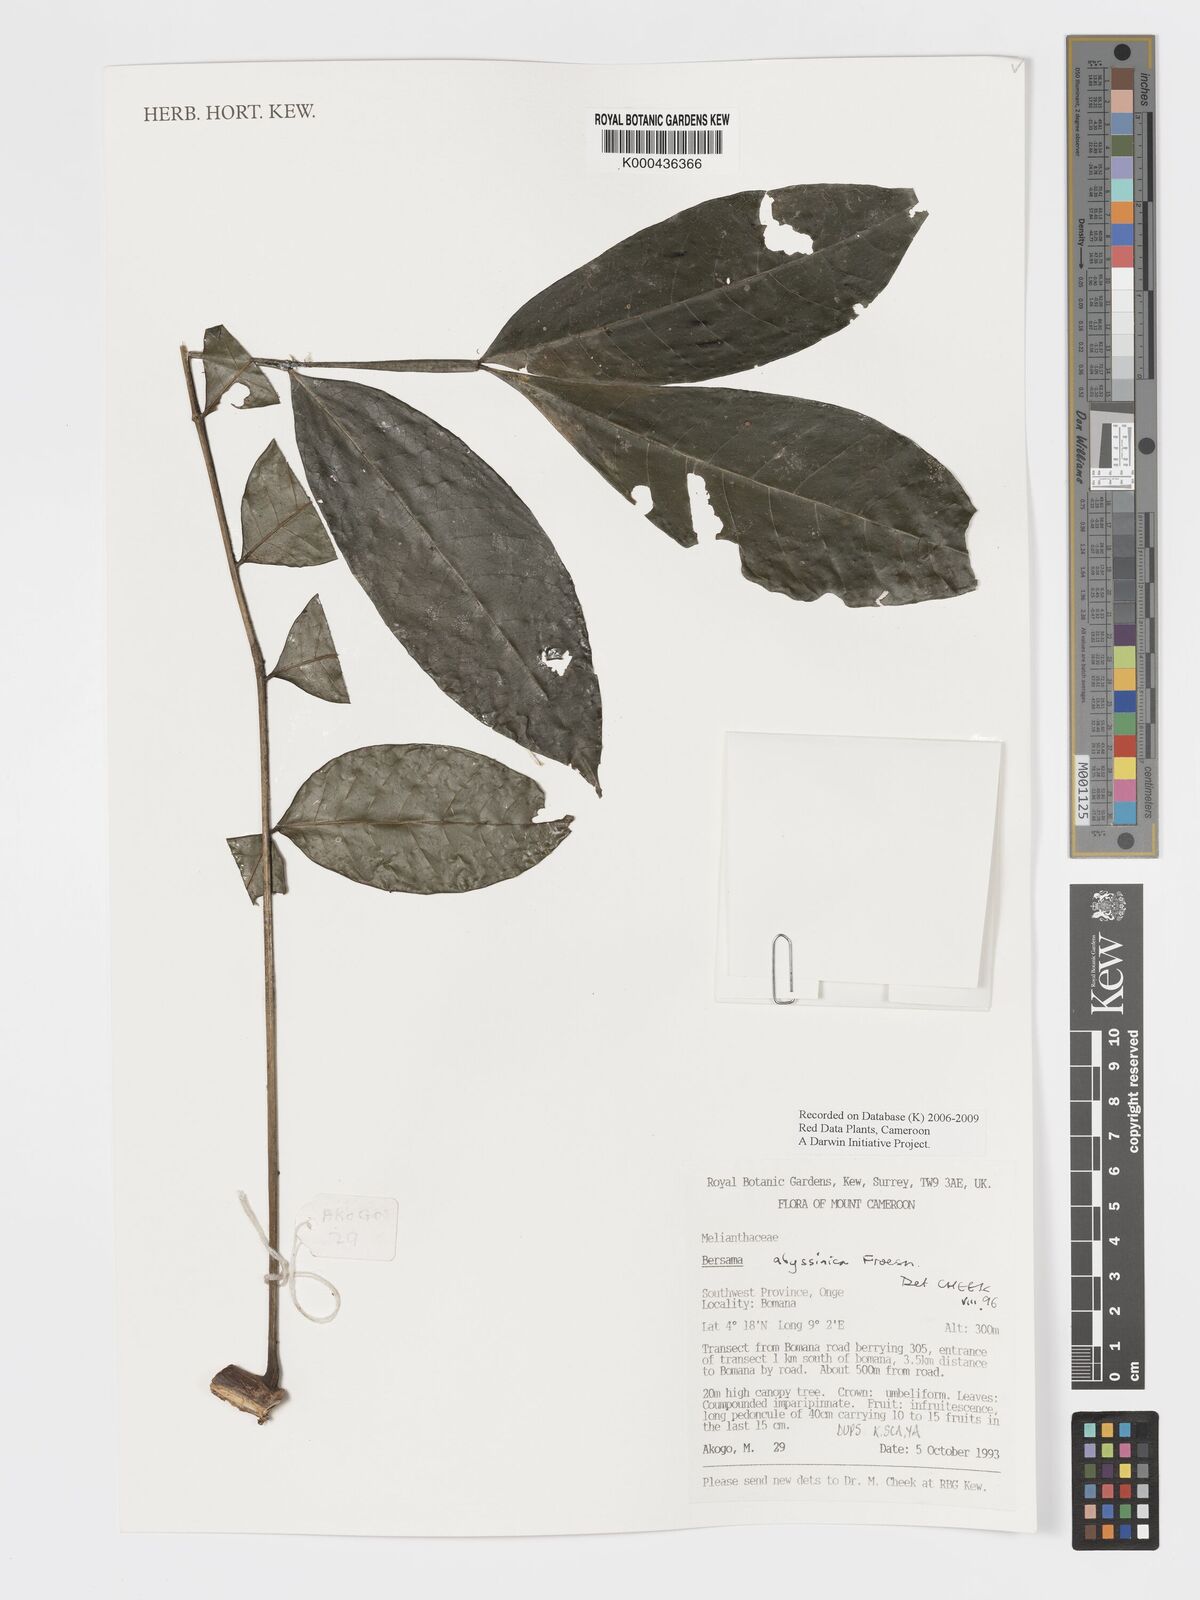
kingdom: Plantae
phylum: Tracheophyta
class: Magnoliopsida
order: Geraniales
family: Melianthaceae
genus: Bersama
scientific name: Bersama abyssinica
